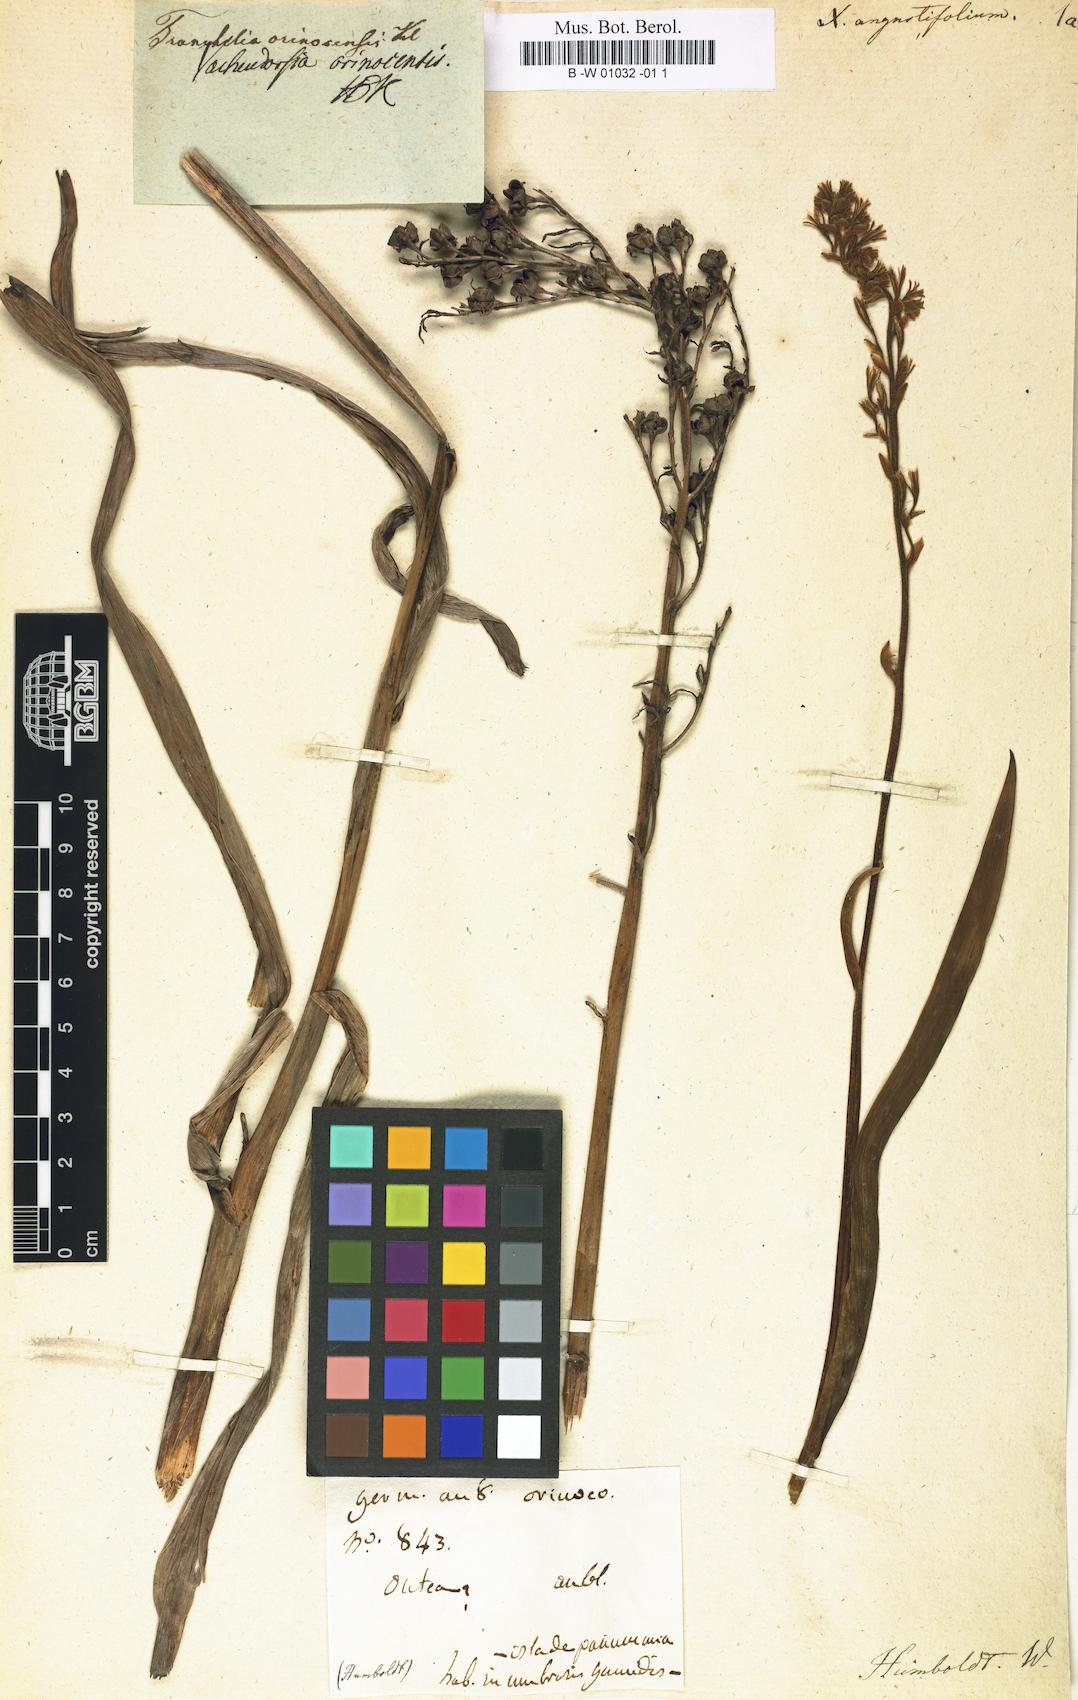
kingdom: Plantae
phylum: Tracheophyta
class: Liliopsida
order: Commelinales
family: Haemodoraceae
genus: Schiekia
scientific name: Schiekia orinocensis
